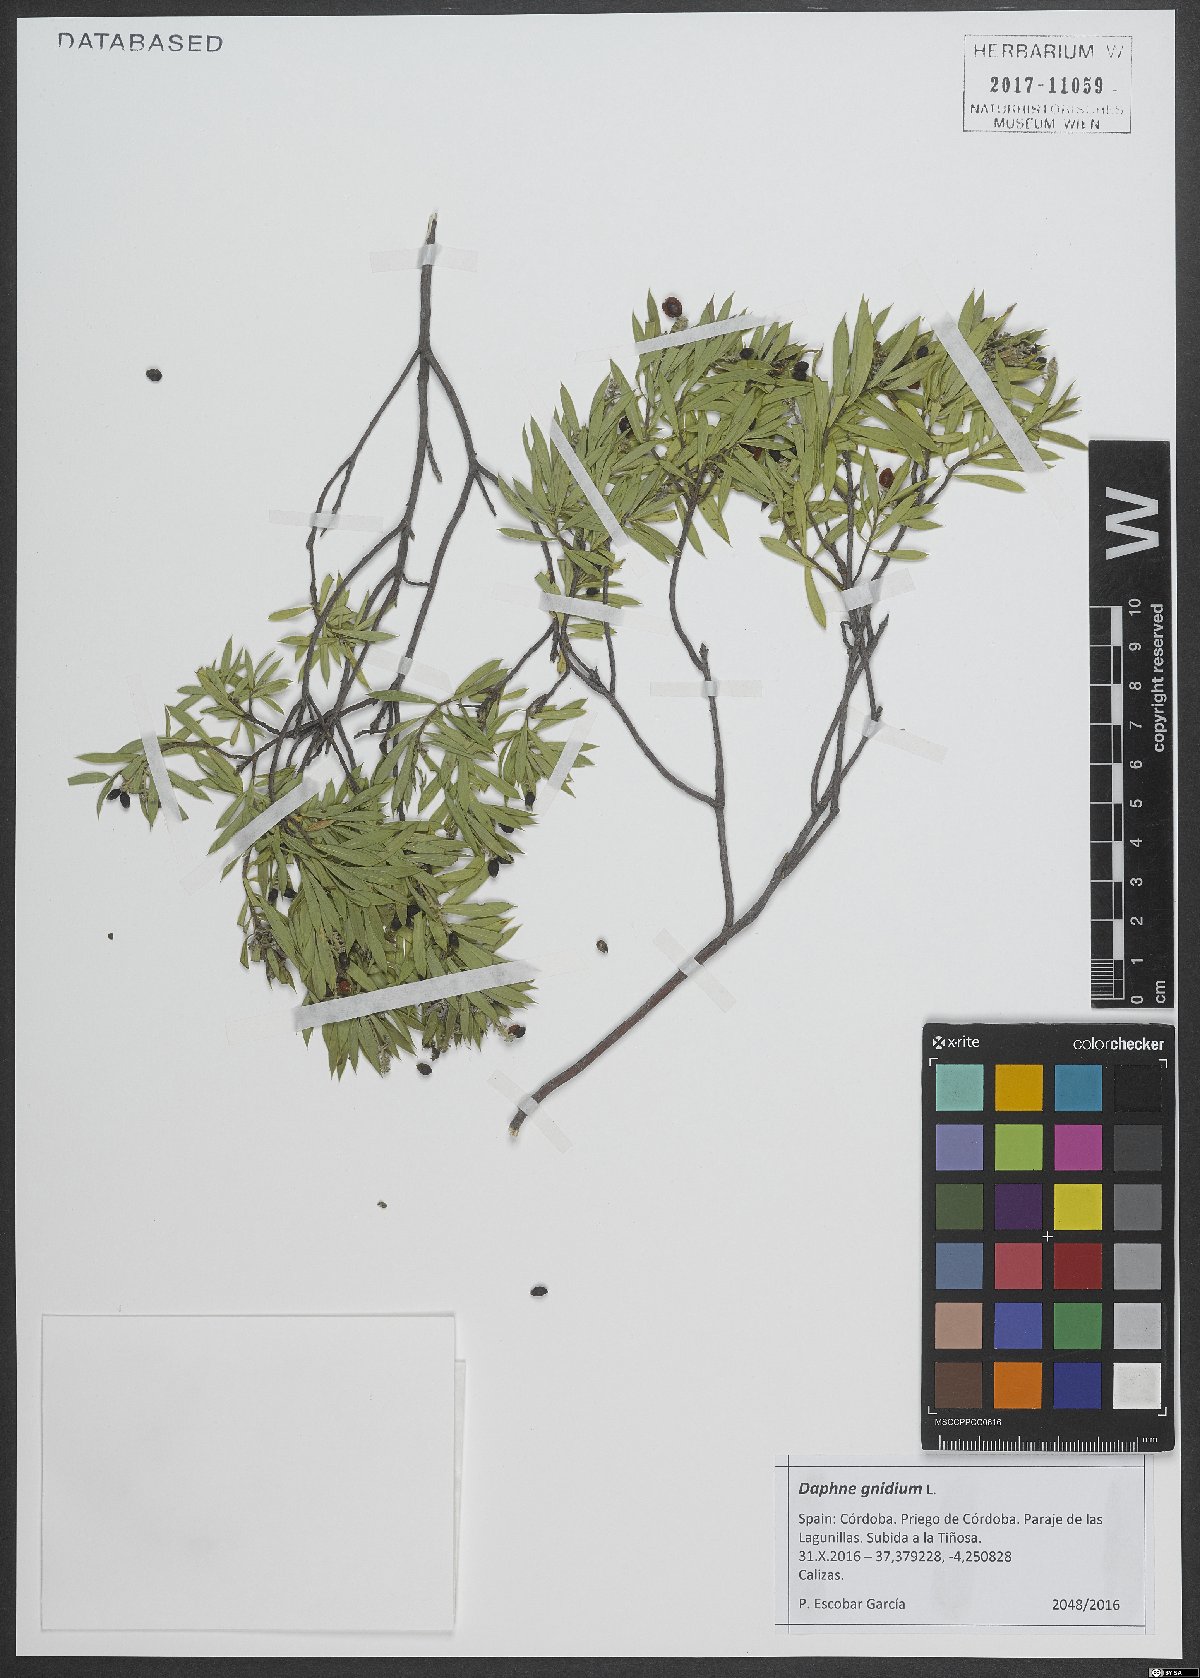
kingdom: Plantae
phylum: Tracheophyta
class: Magnoliopsida
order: Malvales
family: Thymelaeaceae
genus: Daphne
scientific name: Daphne gnidium
